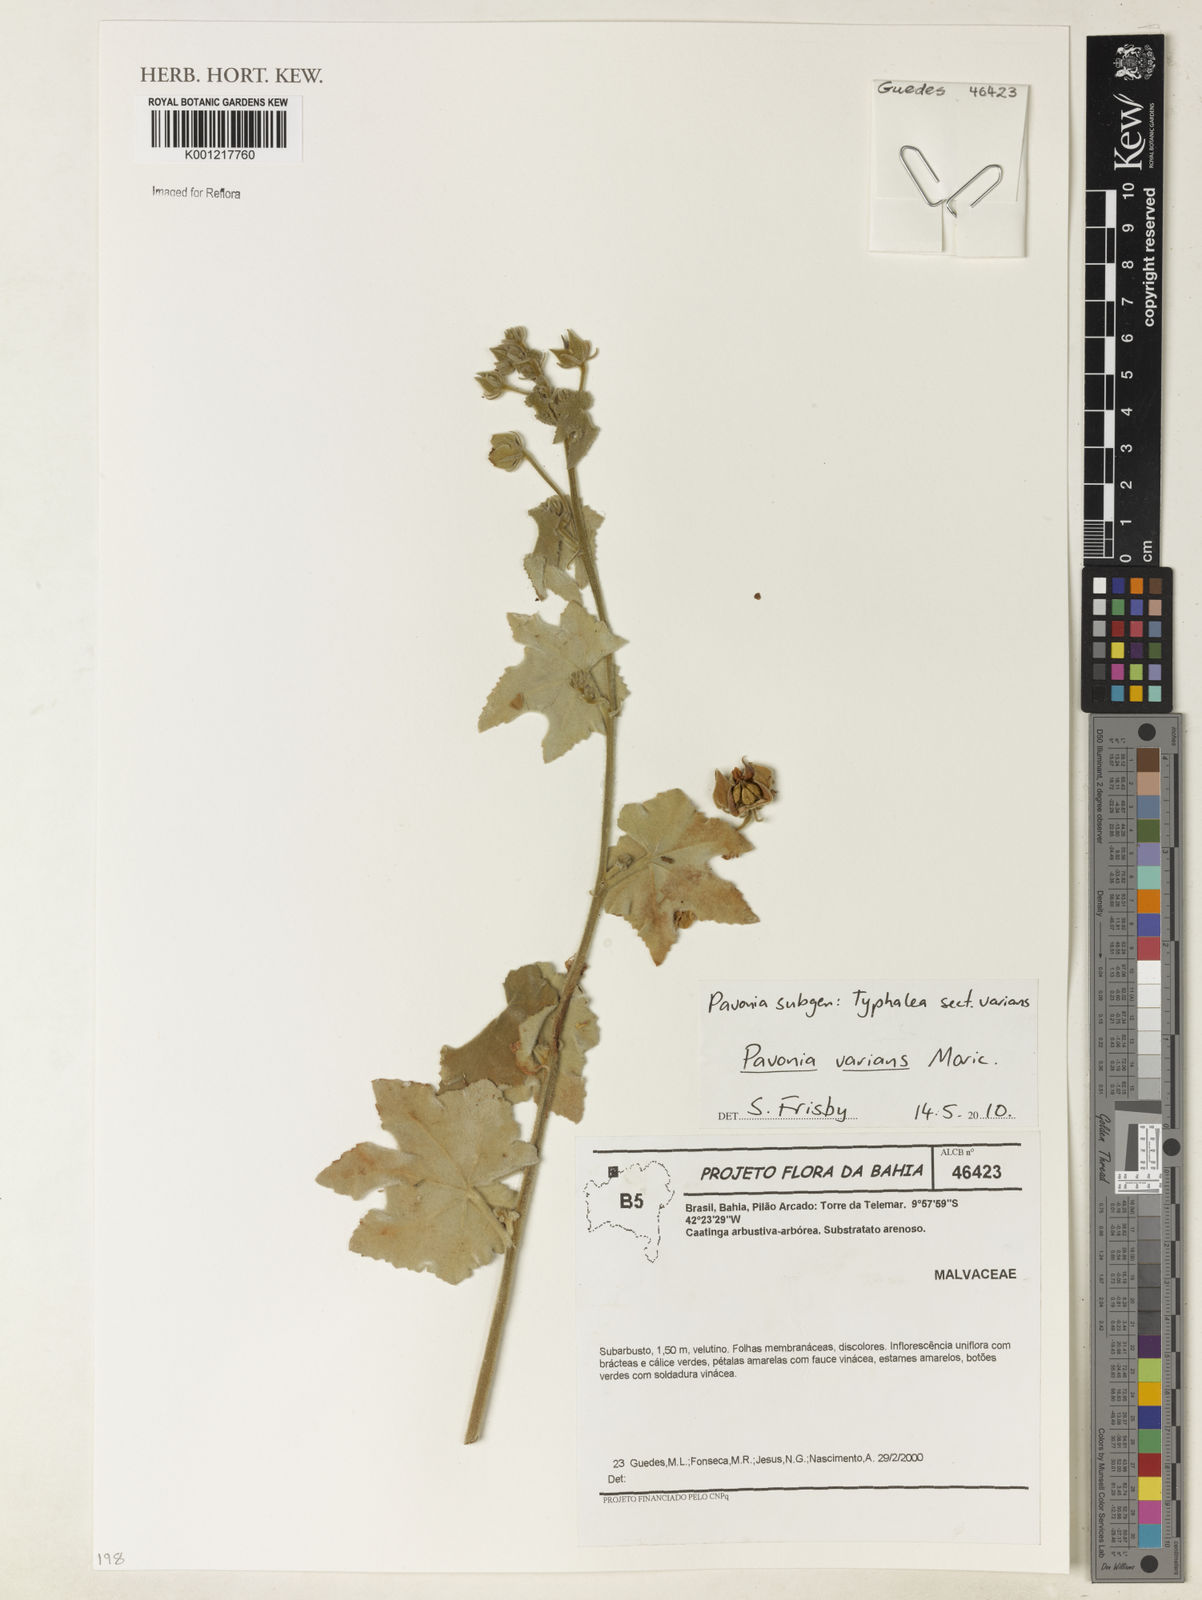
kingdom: Plantae
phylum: Tracheophyta
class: Magnoliopsida
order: Malvales
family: Malvaceae
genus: Pavonia
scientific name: Pavonia varians
